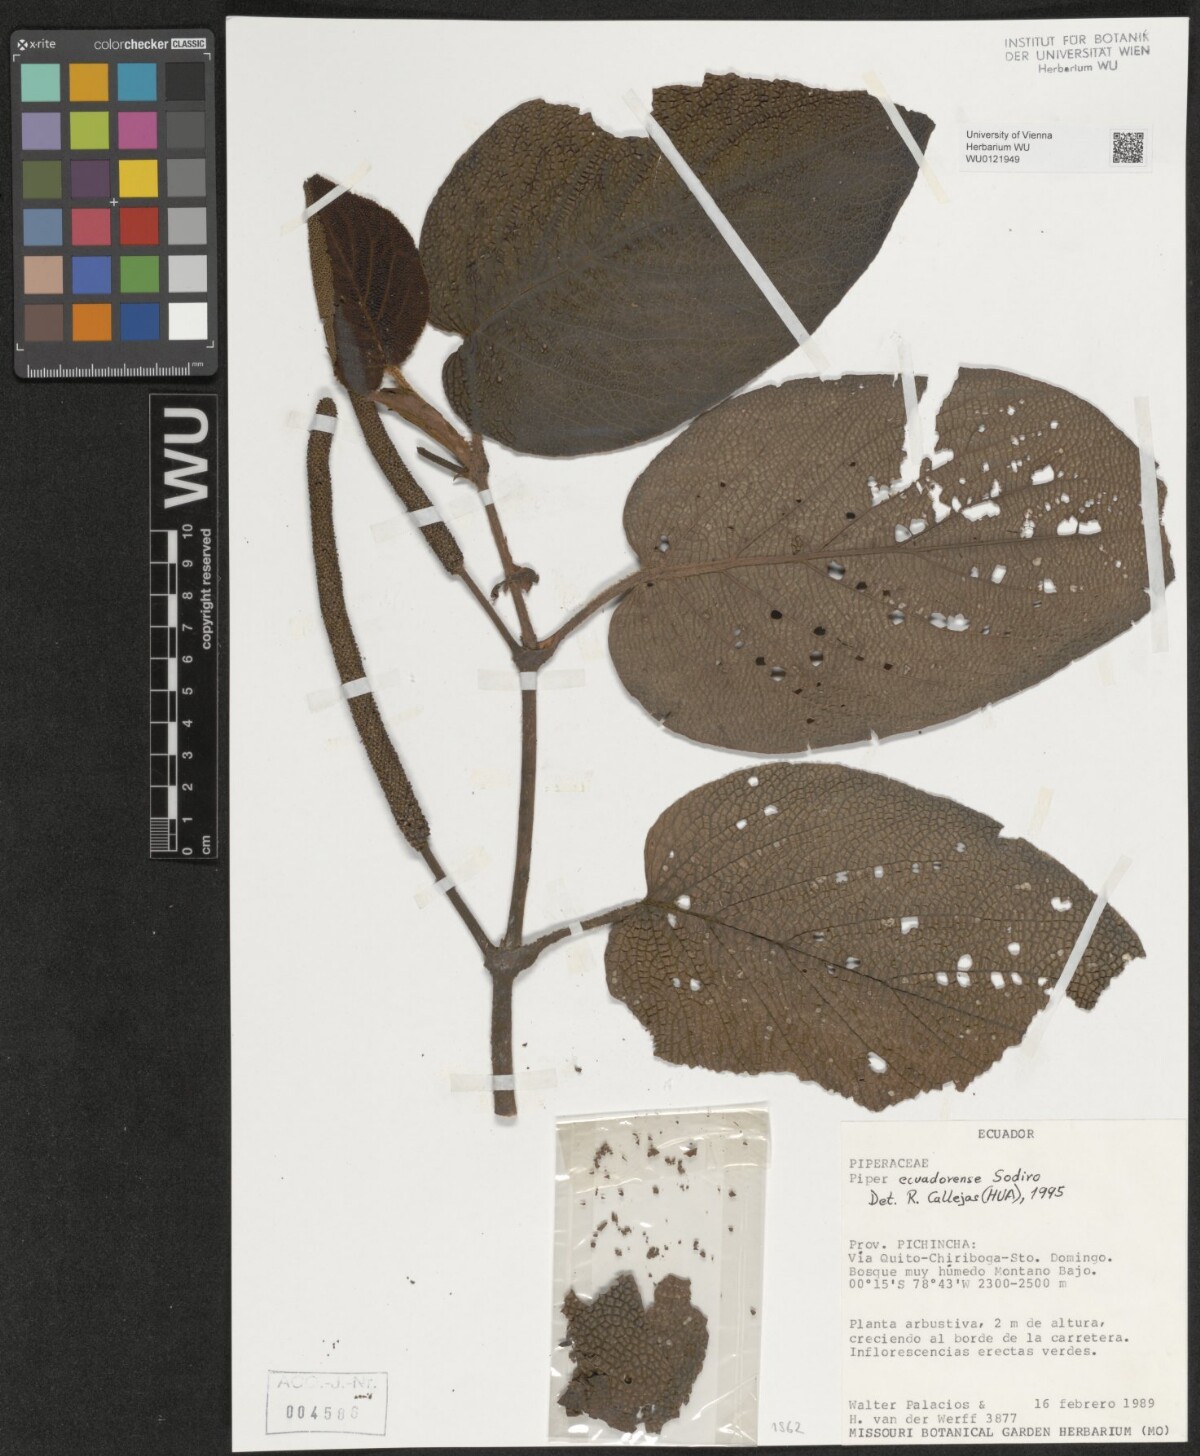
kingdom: Plantae
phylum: Tracheophyta
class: Magnoliopsida
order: Piperales
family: Piperaceae
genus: Piper
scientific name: Piper ecuadorense
